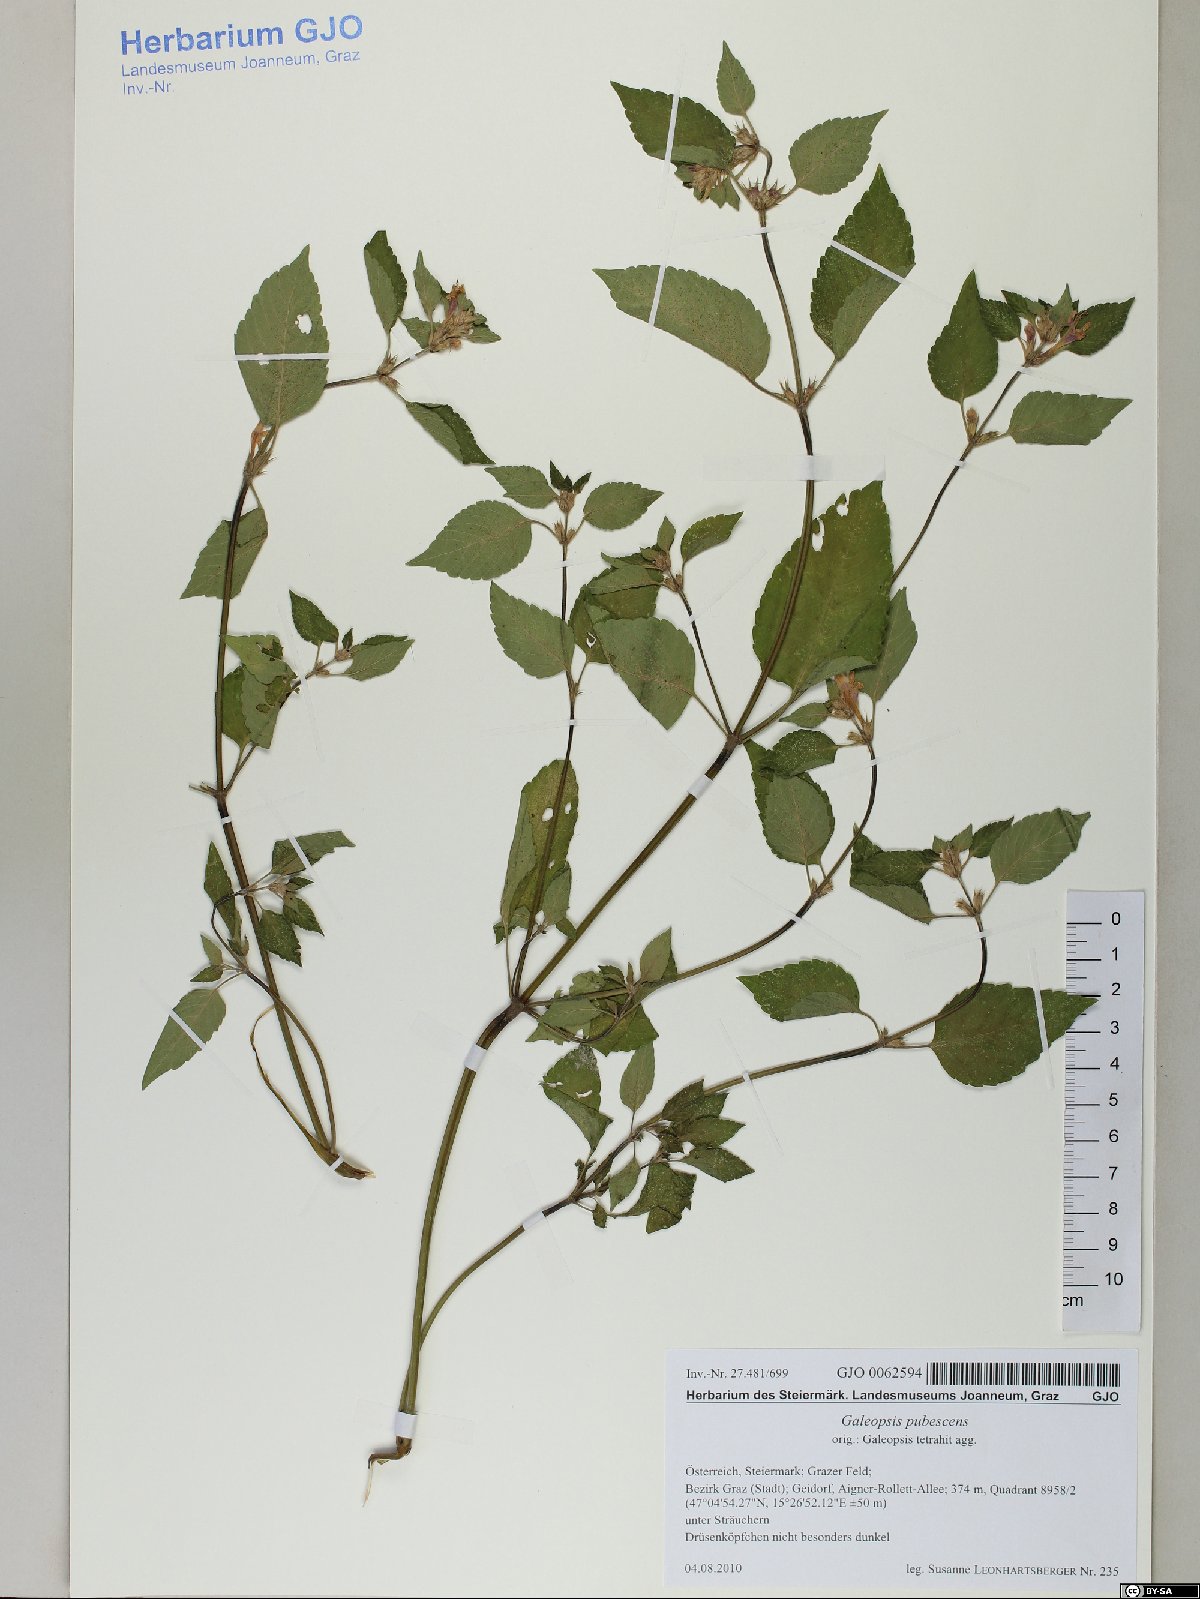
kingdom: Plantae
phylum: Tracheophyta
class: Magnoliopsida
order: Lamiales
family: Lamiaceae
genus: Galeopsis
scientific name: Galeopsis pubescens
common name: Downy hemp-nettle
